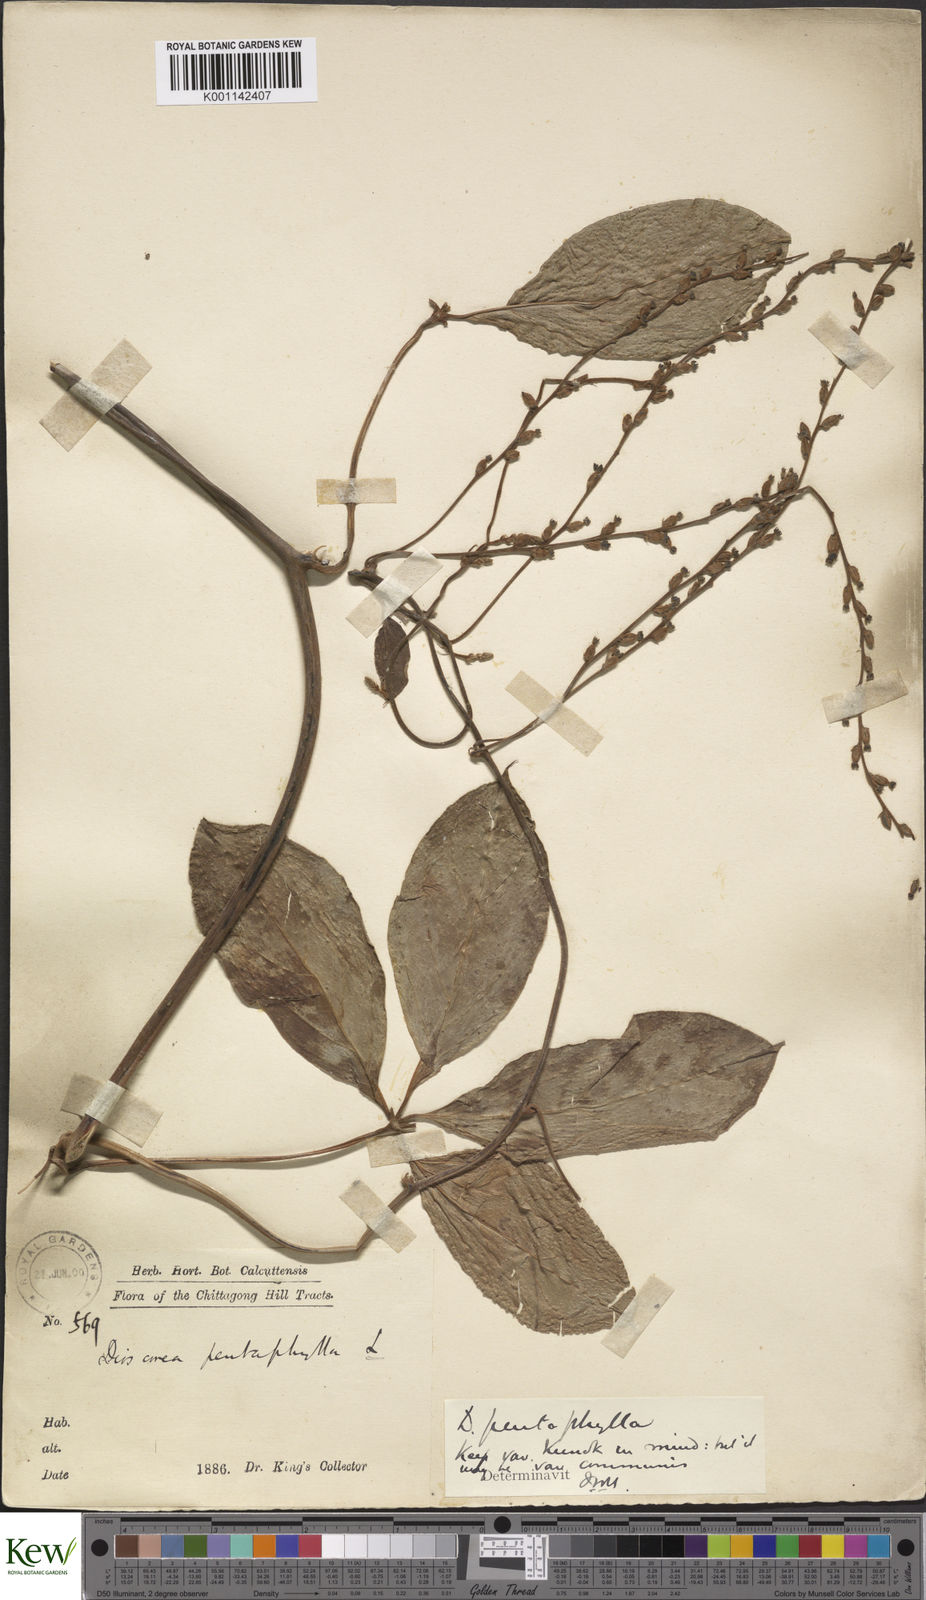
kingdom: Plantae
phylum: Tracheophyta
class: Liliopsida
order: Dioscoreales
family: Dioscoreaceae
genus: Dioscorea
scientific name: Dioscorea pentaphylla
